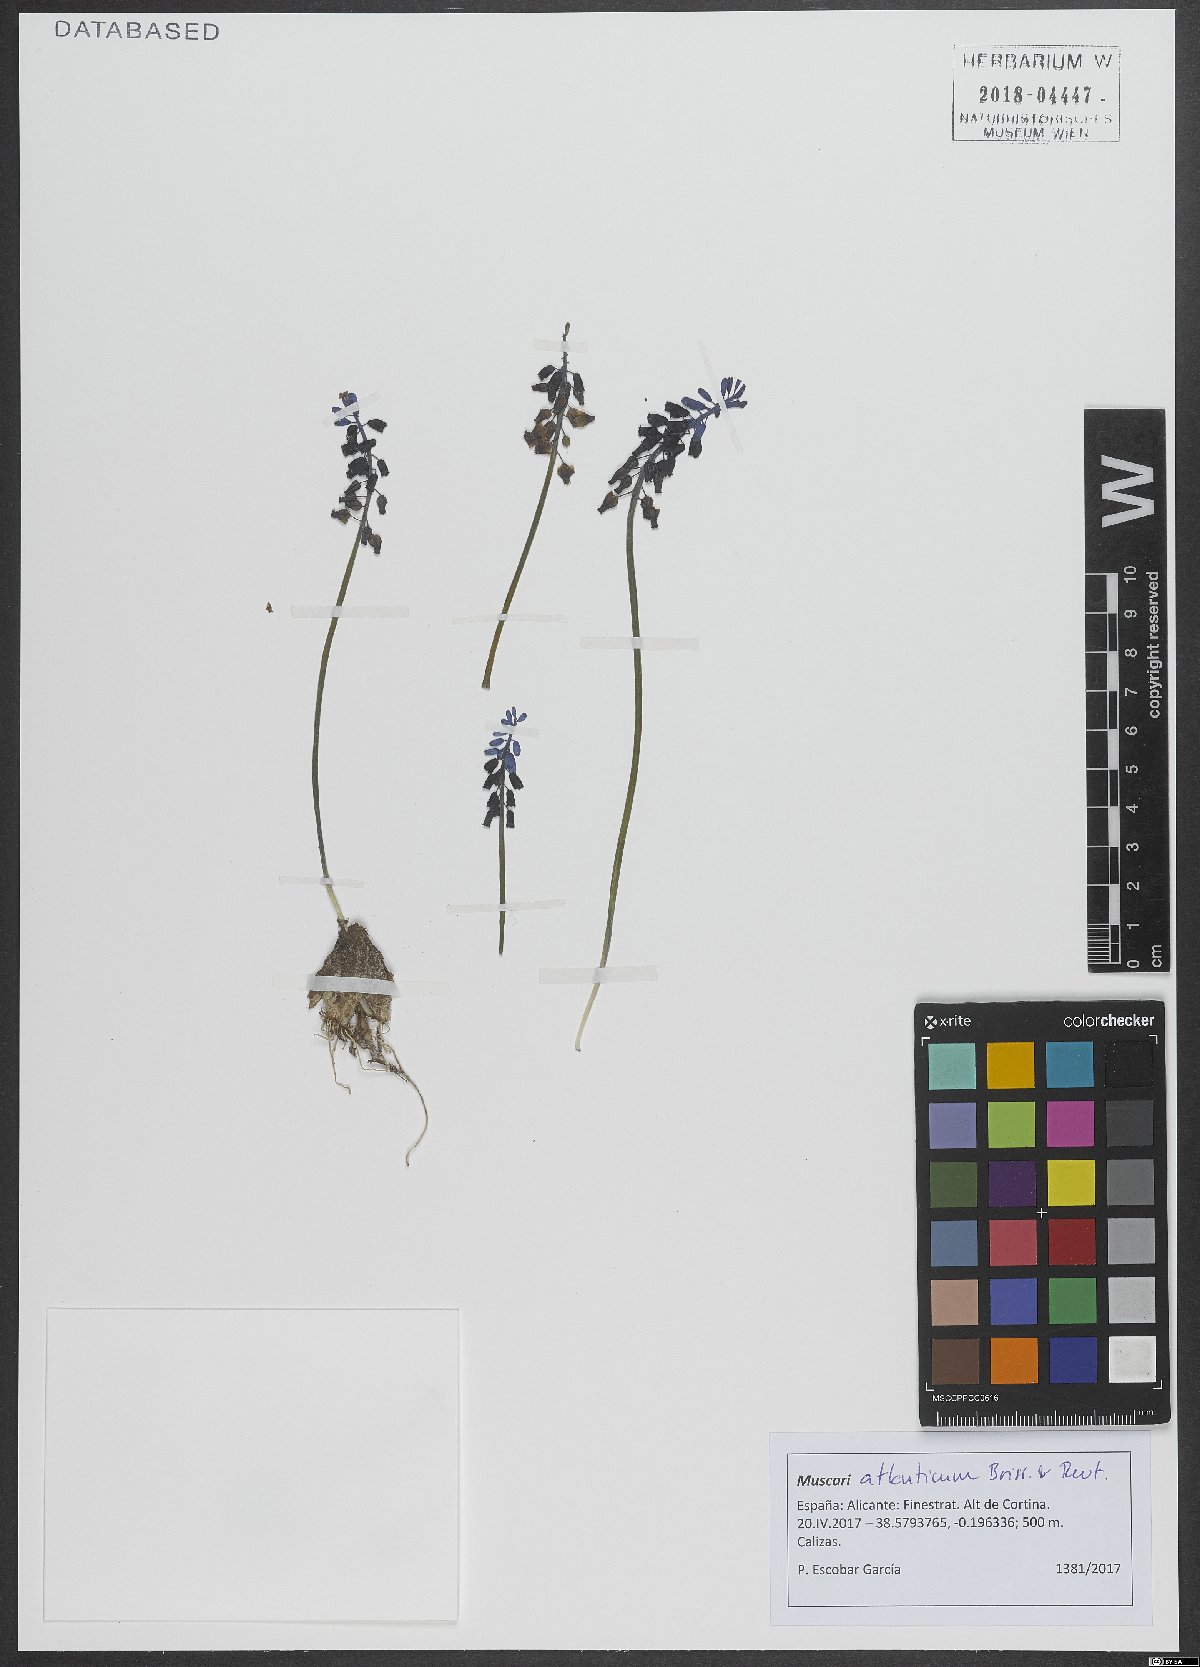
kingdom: Plantae
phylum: Tracheophyta
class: Liliopsida
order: Asparagales
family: Asparagaceae
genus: Muscari
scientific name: Muscari atlanticum
